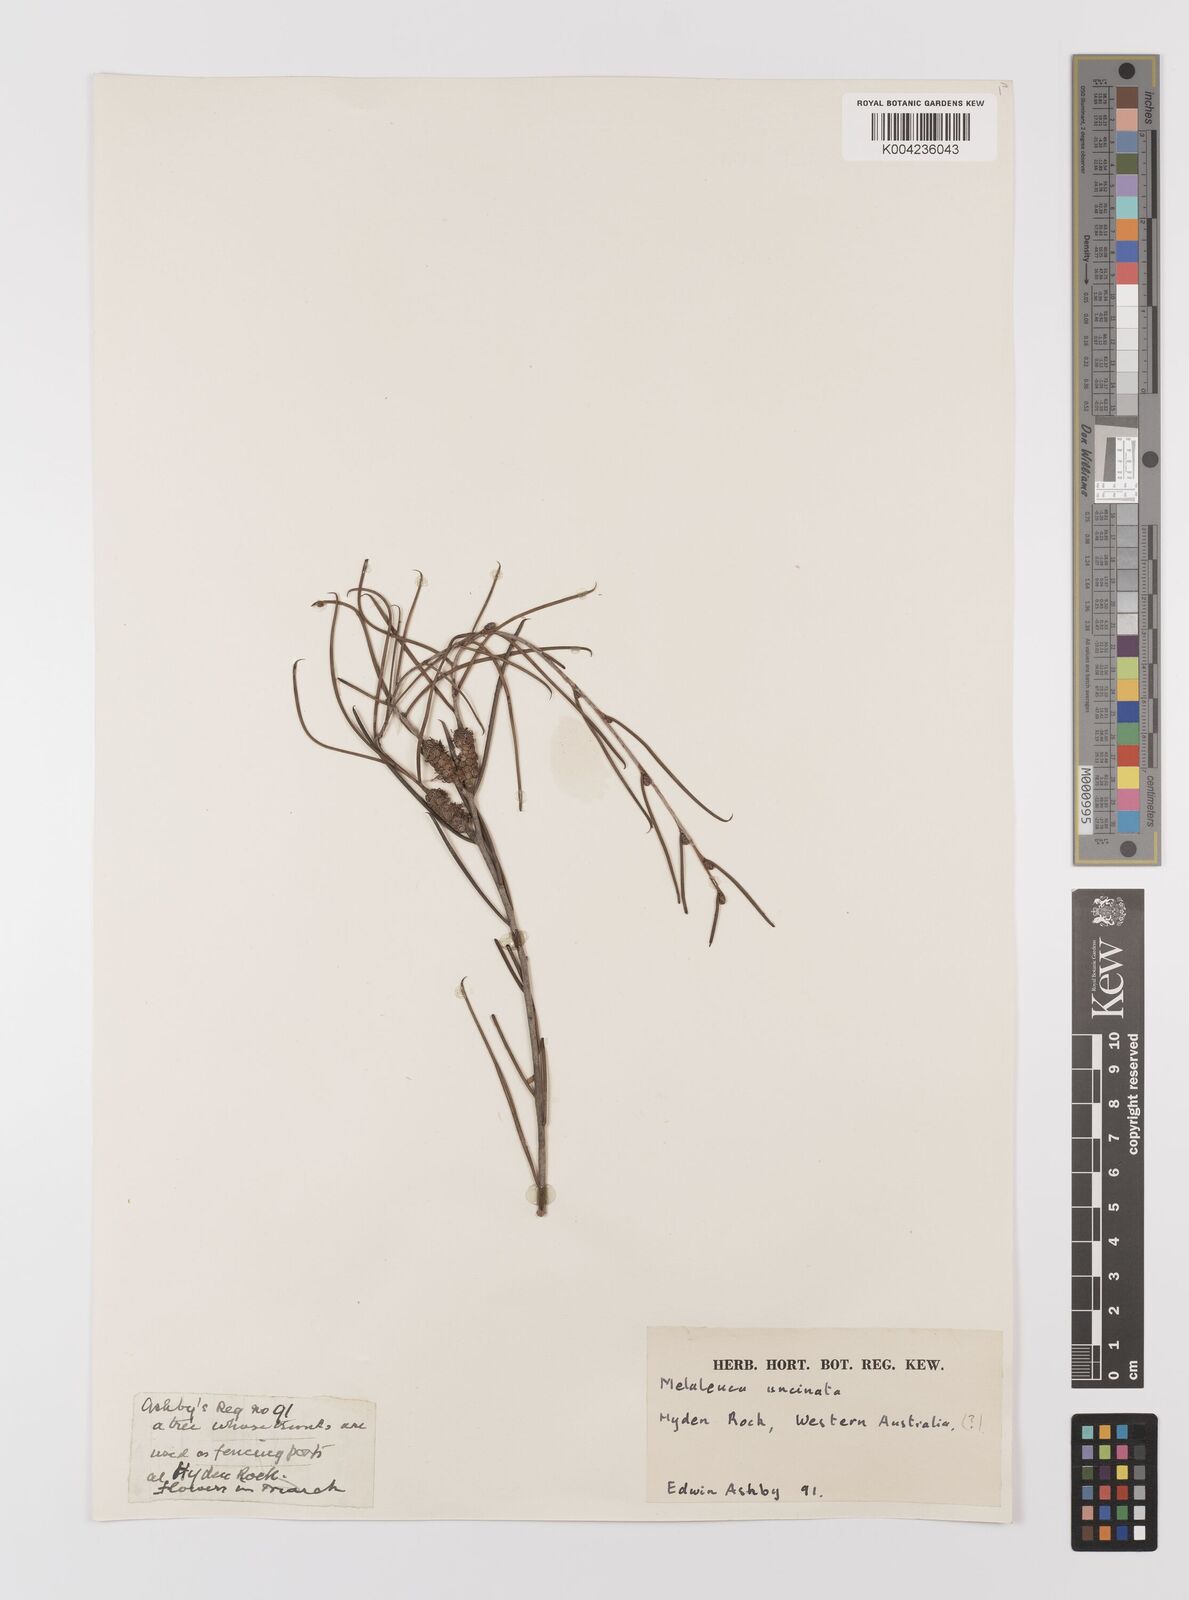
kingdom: Plantae
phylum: Tracheophyta
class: Magnoliopsida
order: Myrtales
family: Myrtaceae
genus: Melaleuca
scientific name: Melaleuca uncinata
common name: Broom honey myrtle
